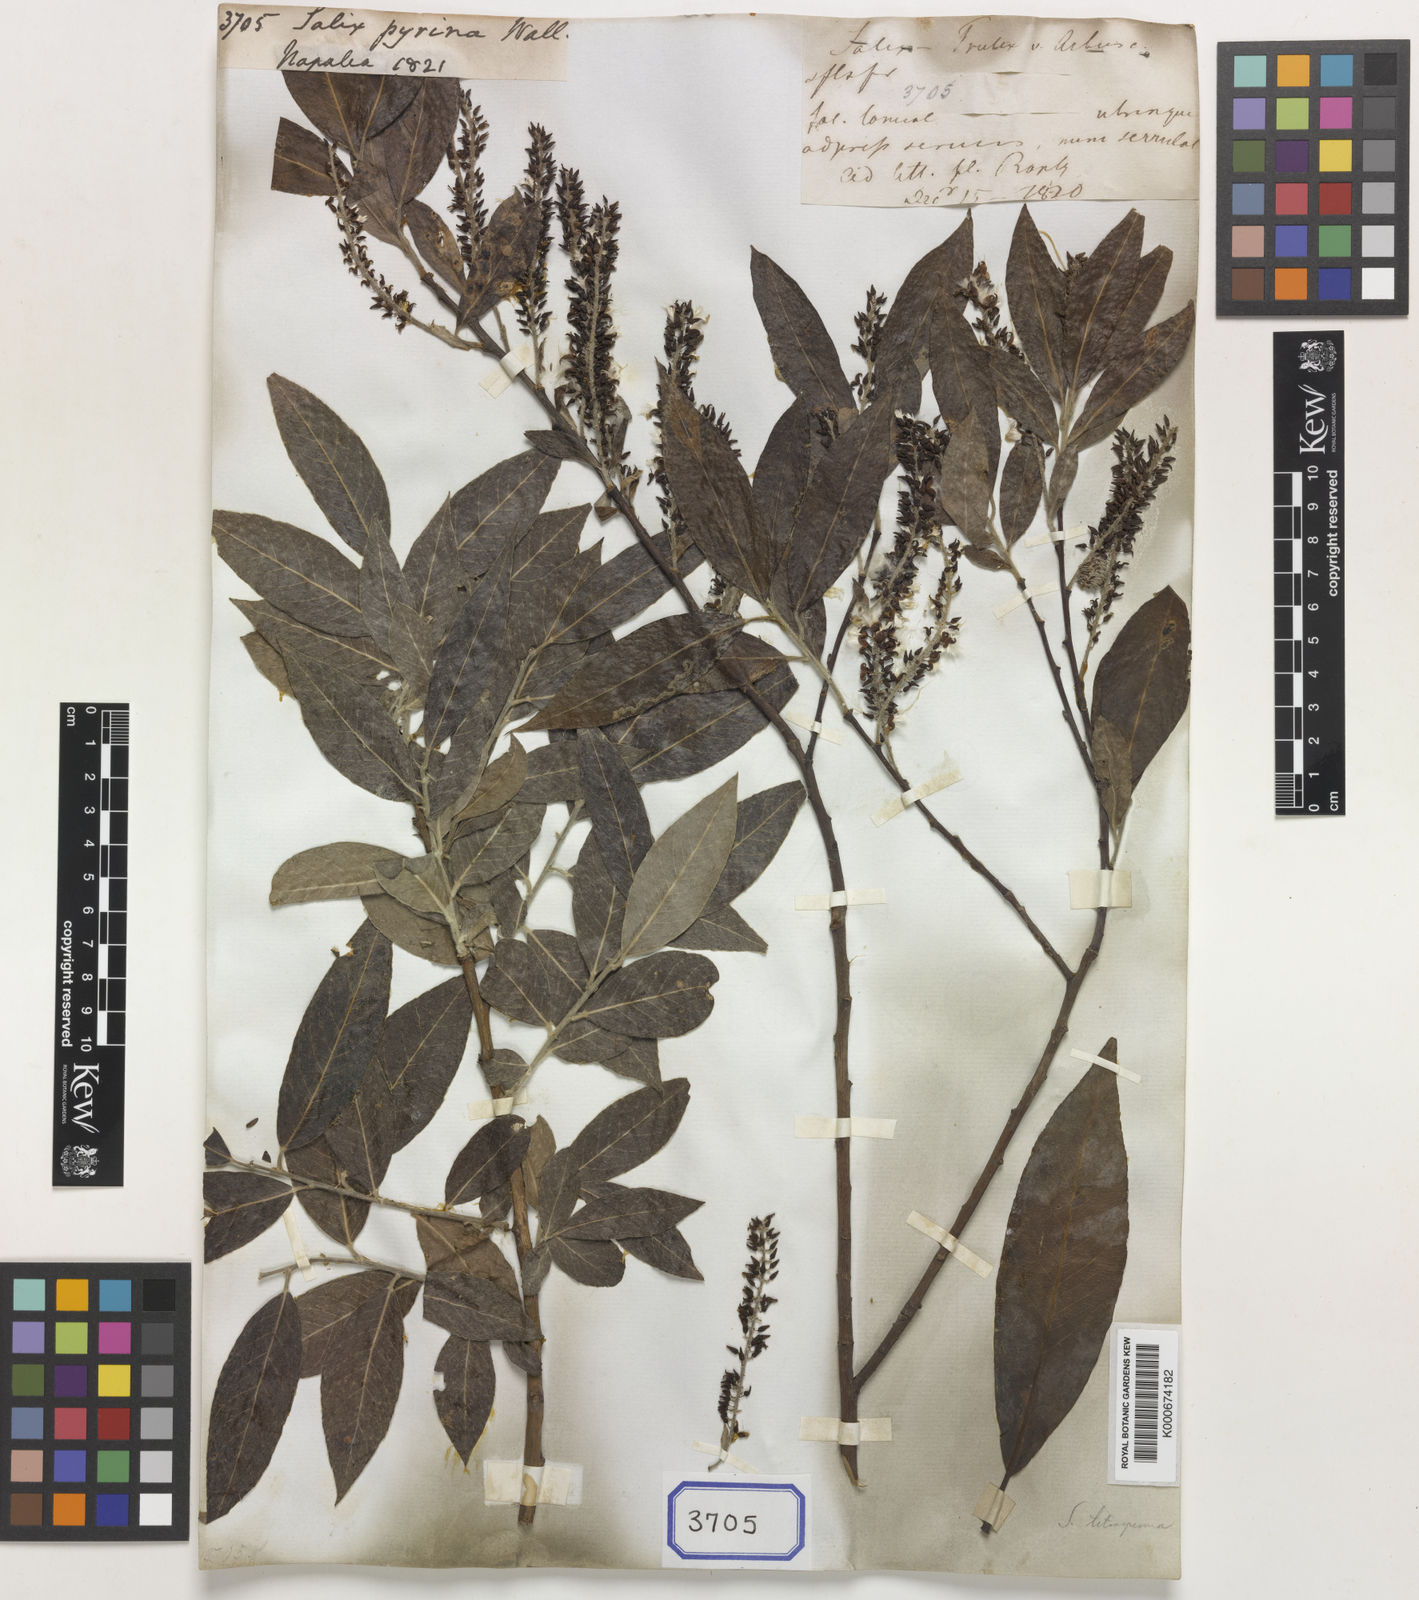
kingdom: Plantae
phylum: Tracheophyta
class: Magnoliopsida
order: Malpighiales
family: Salicaceae
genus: Salix
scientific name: Salix
